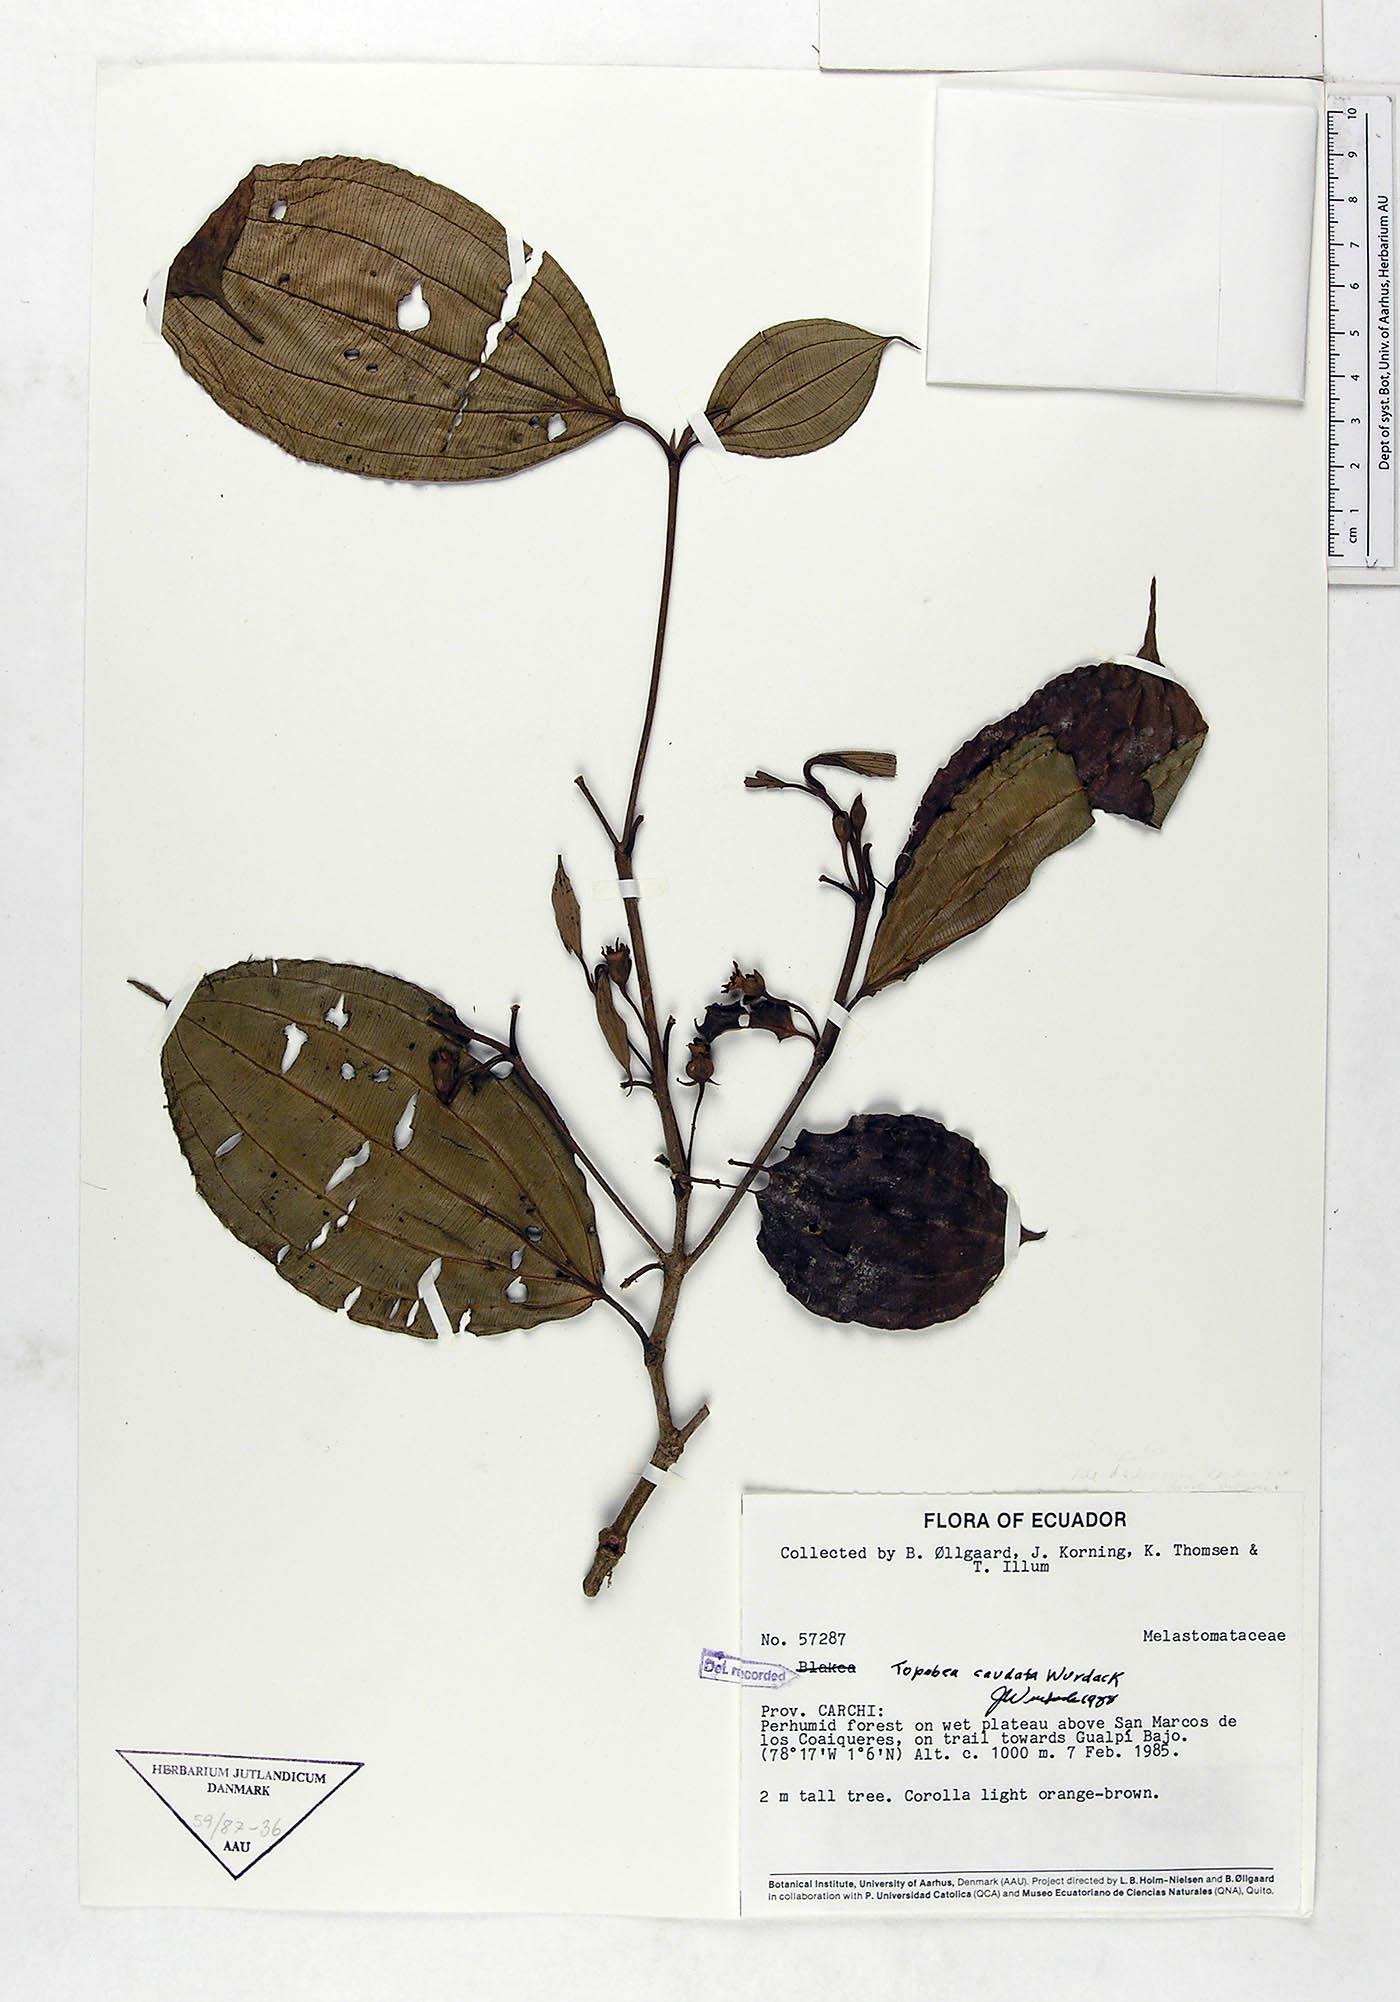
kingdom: Plantae
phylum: Tracheophyta
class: Magnoliopsida
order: Myrtales
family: Melastomataceae
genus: Blakea
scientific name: Blakea horologica
